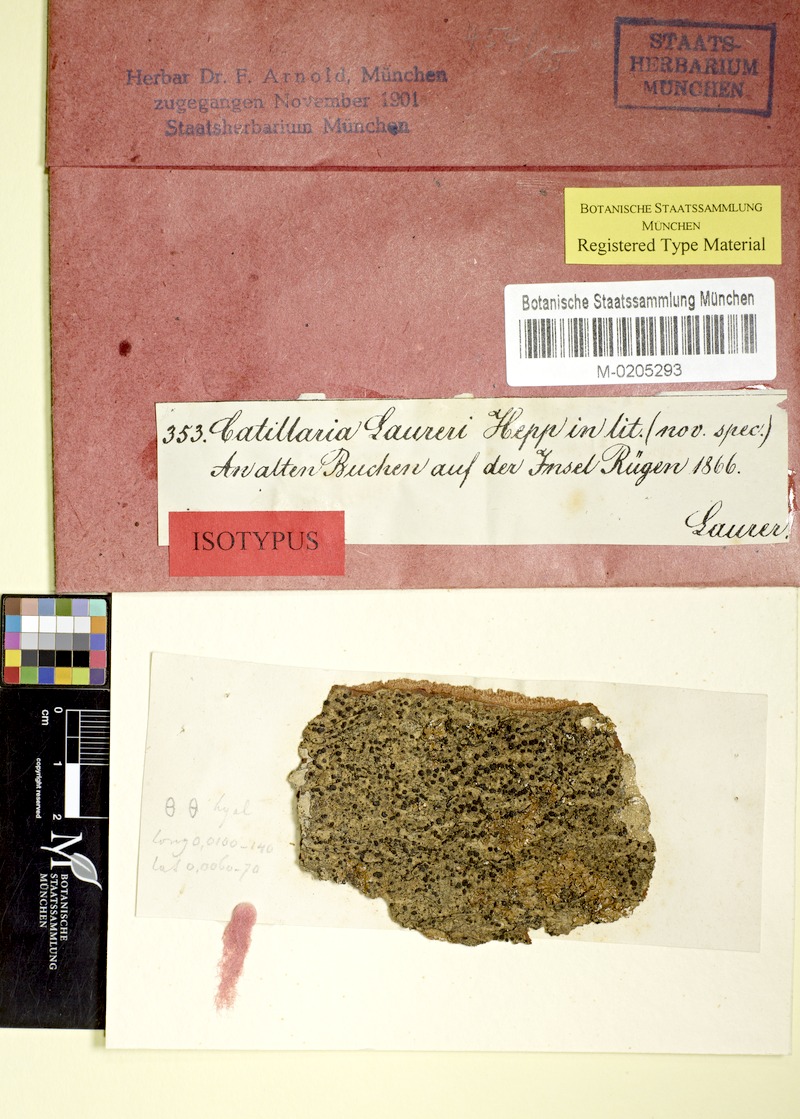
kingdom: Fungi
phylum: Ascomycota
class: Lecanoromycetes
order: Lecanorales
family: Ramalinaceae
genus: Megalaria
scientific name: Megalaria laureri
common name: Laurer's catillaria
